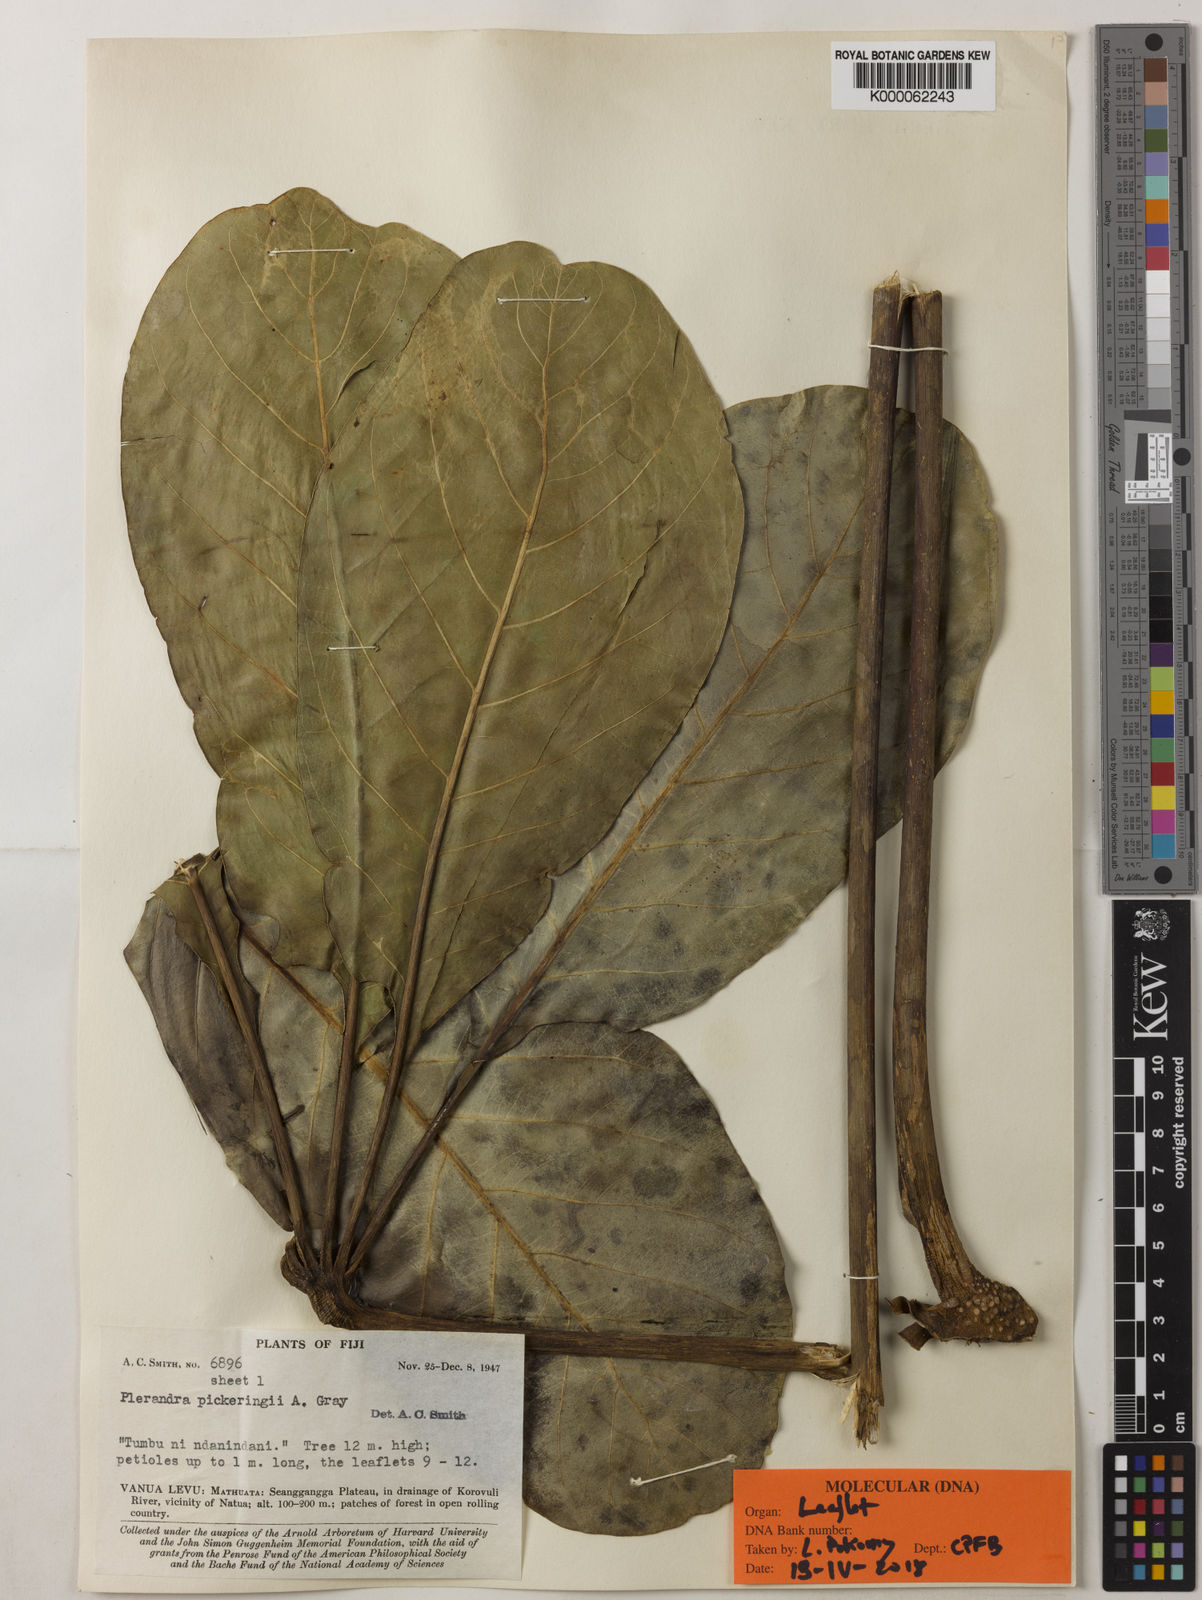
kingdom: Plantae
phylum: Tracheophyta
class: Magnoliopsida
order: Apiales
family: Araliaceae
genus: Plerandra
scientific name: Plerandra
